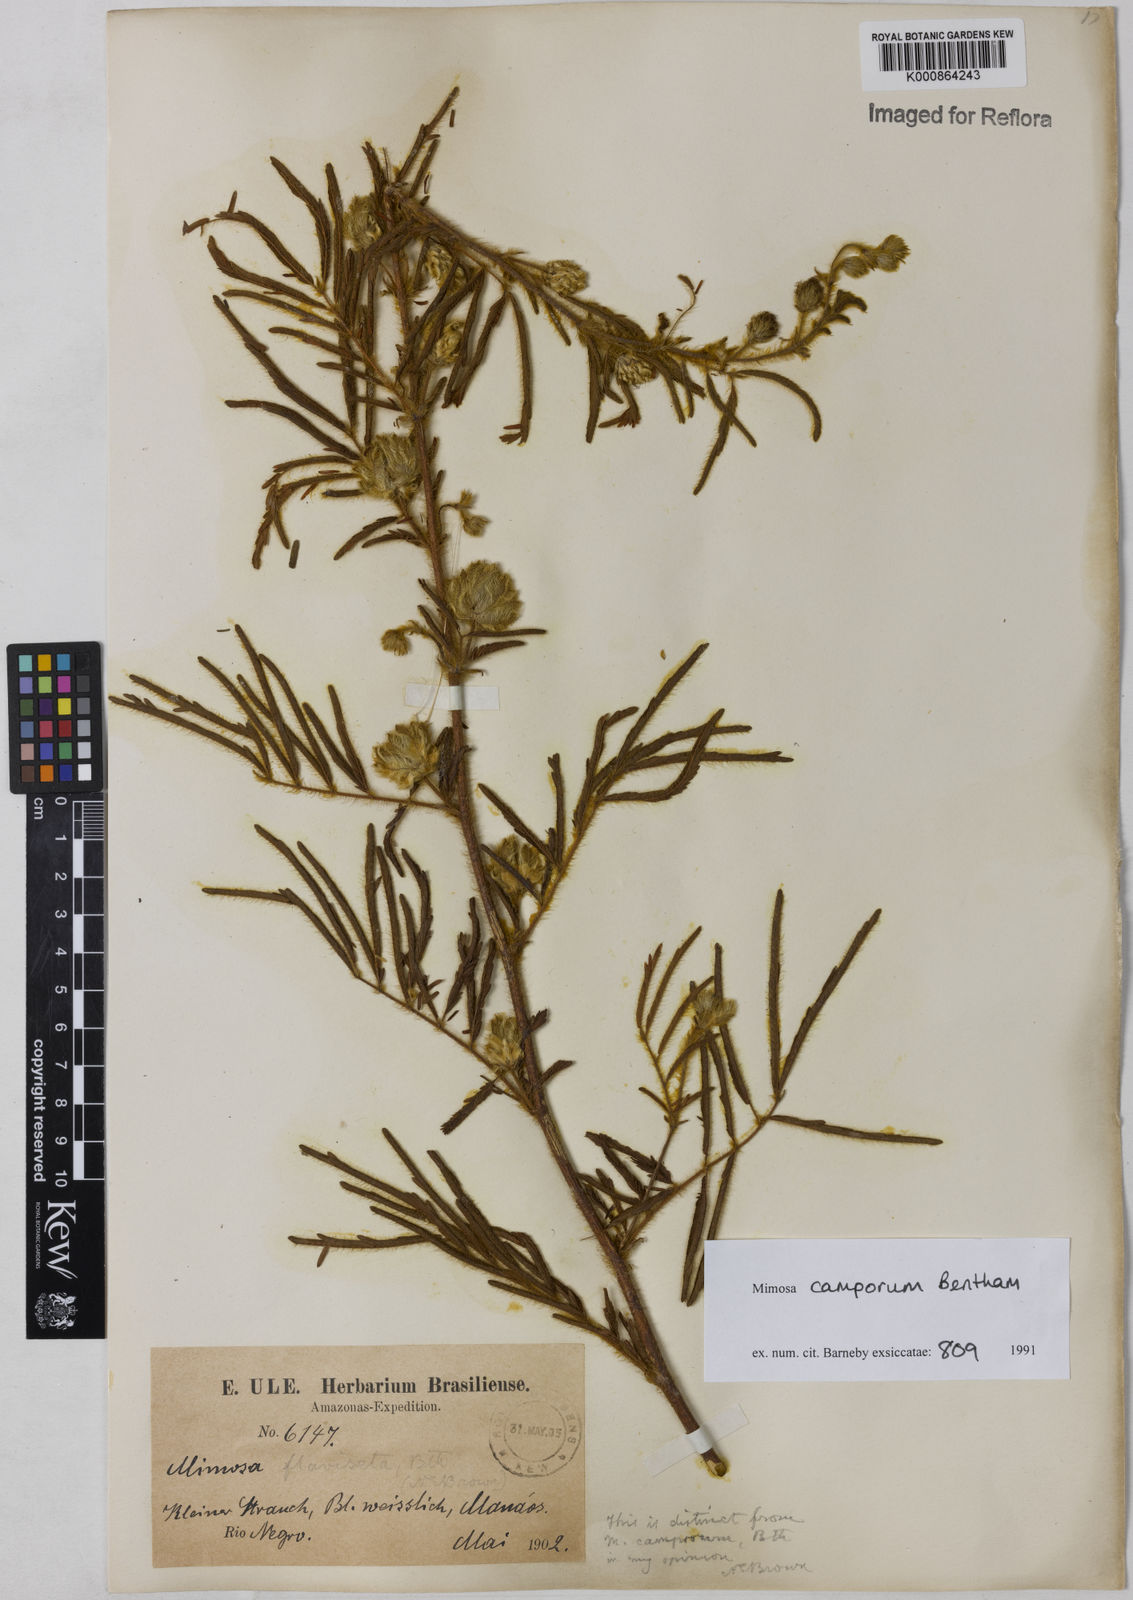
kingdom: Plantae
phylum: Tracheophyta
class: Magnoliopsida
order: Fabales
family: Fabaceae
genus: Mimosa
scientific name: Mimosa camporum
